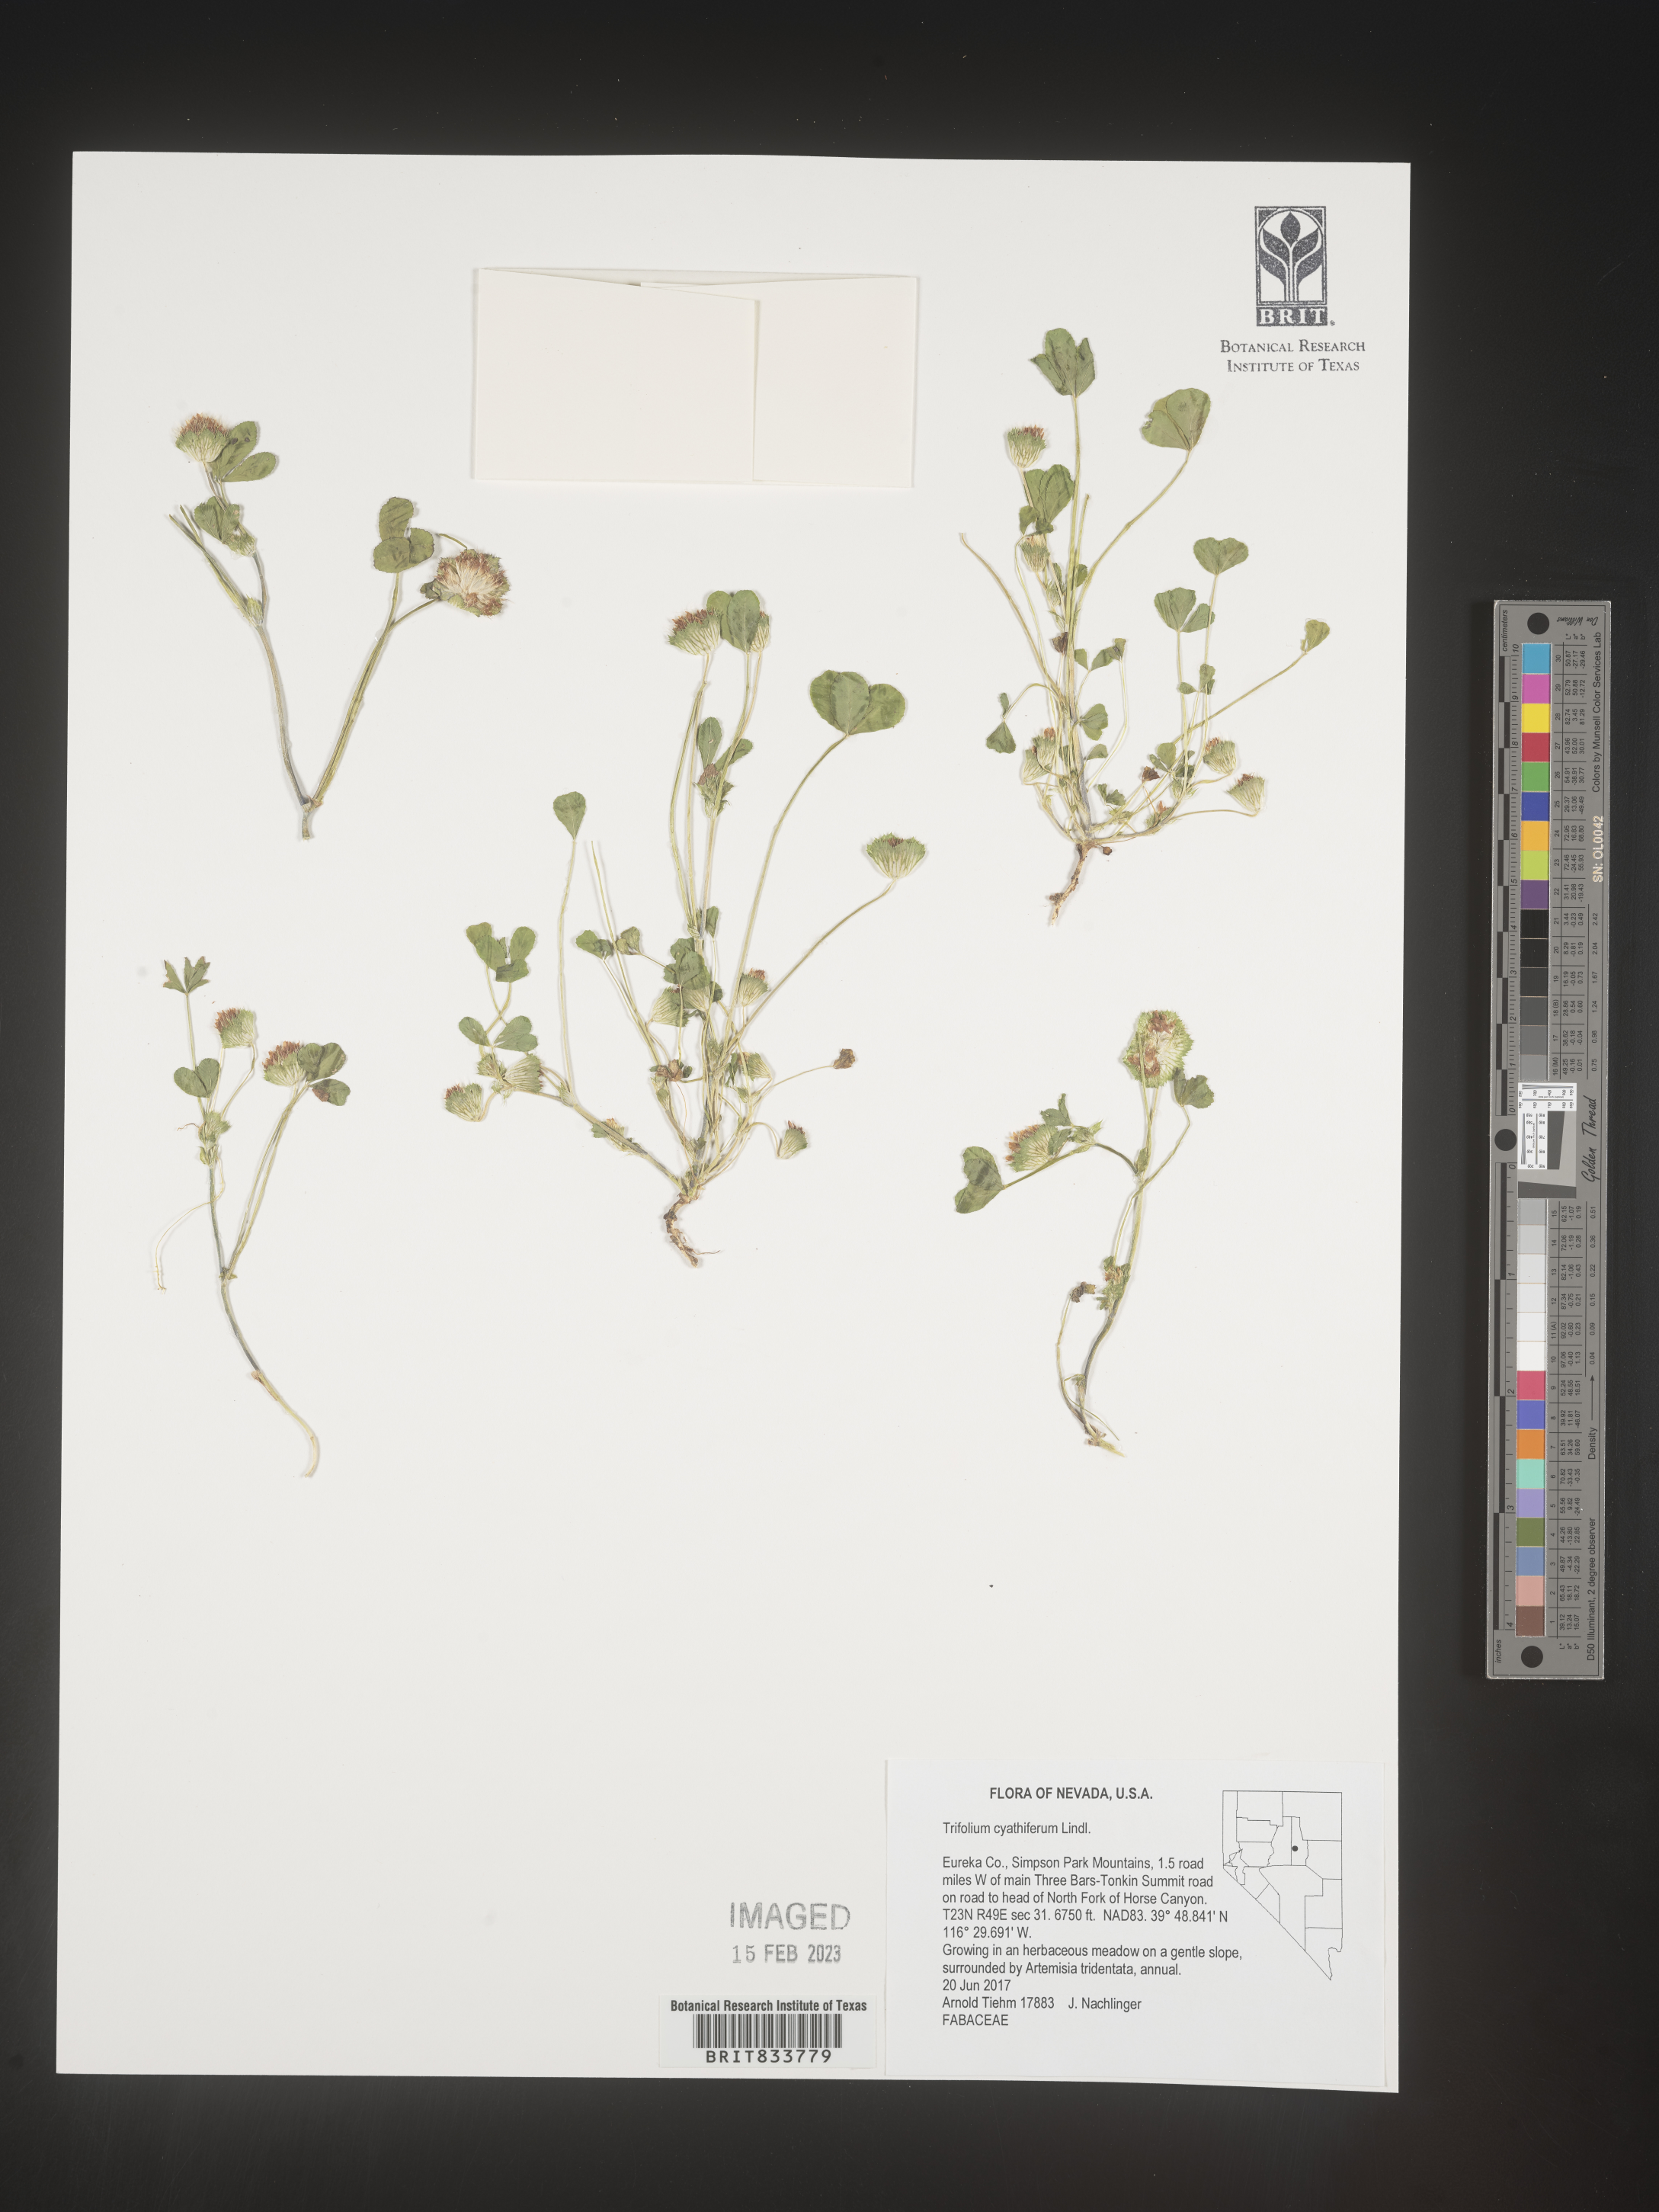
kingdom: Plantae
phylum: Tracheophyta
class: Magnoliopsida
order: Fabales
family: Fabaceae
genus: Trifolium
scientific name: Trifolium
